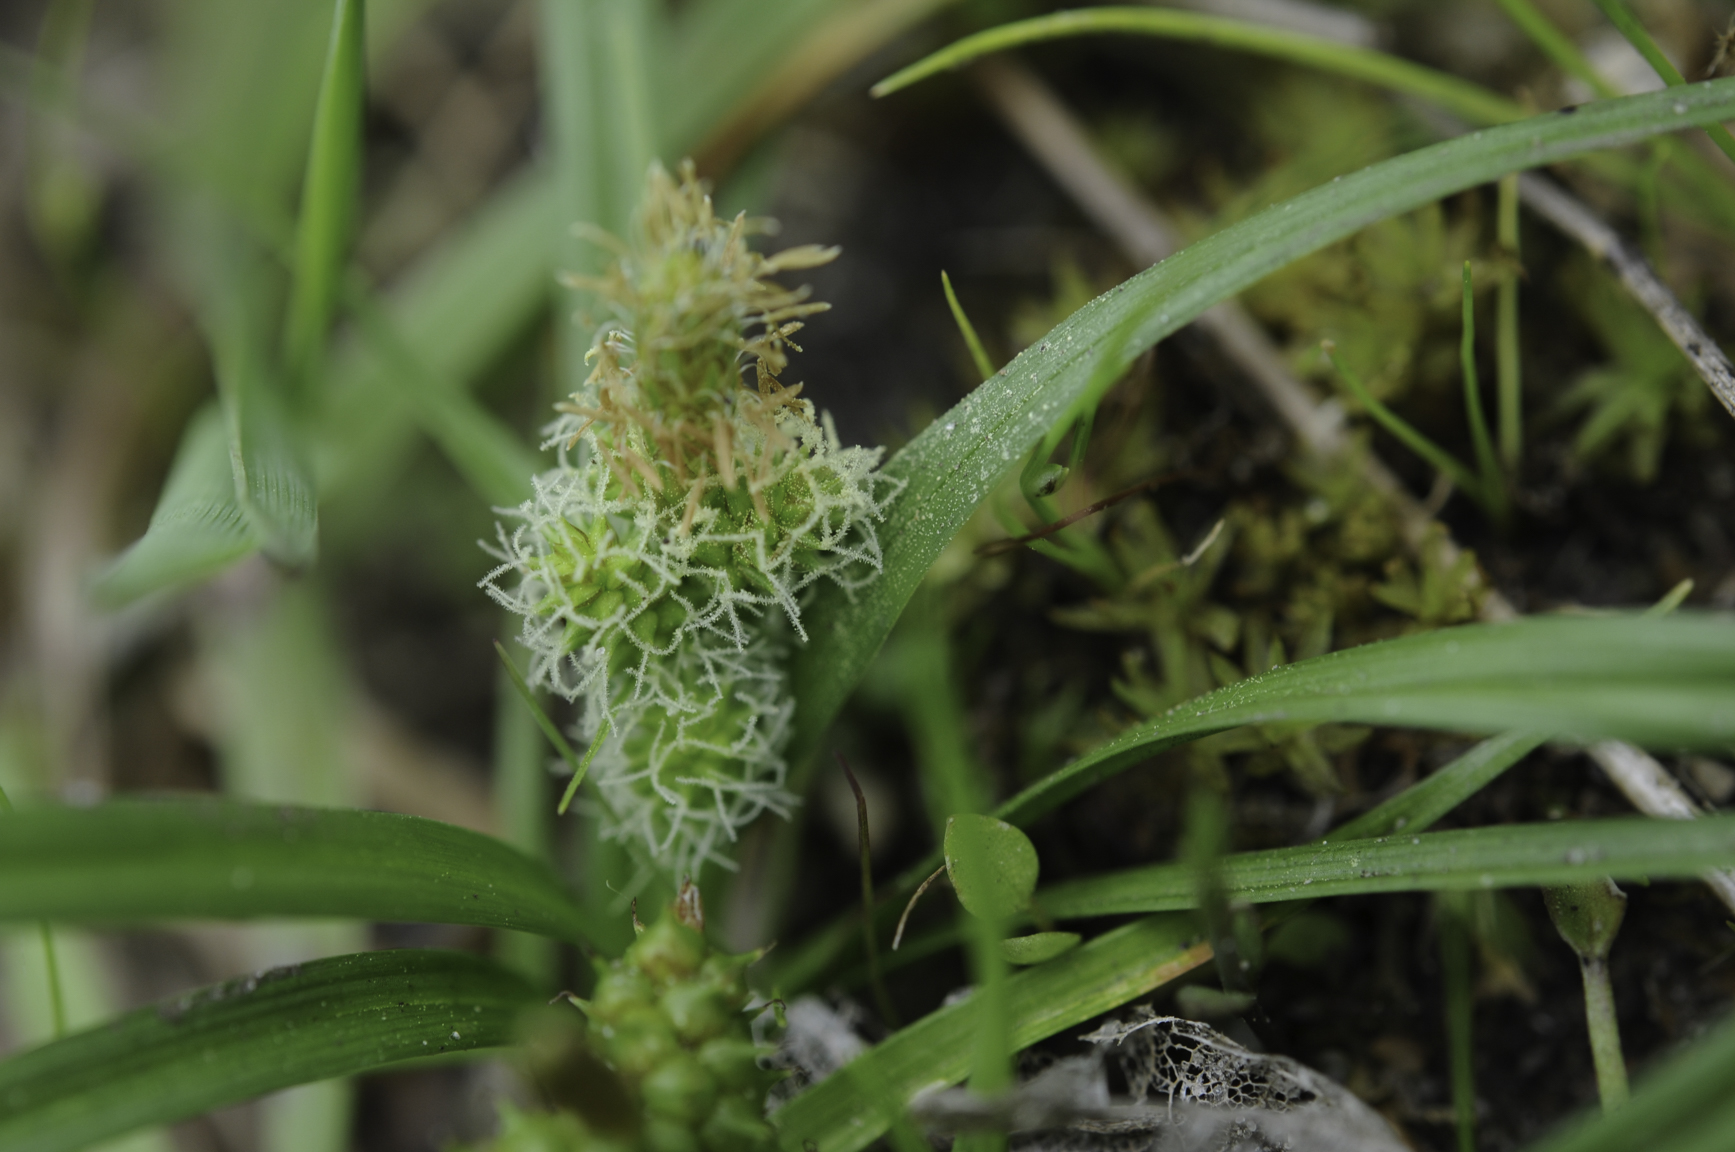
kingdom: Plantae
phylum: Tracheophyta
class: Liliopsida
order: Poales
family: Cyperaceae
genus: Carex
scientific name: Carex oederi
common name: Common & small-fruited yellow-sedge
